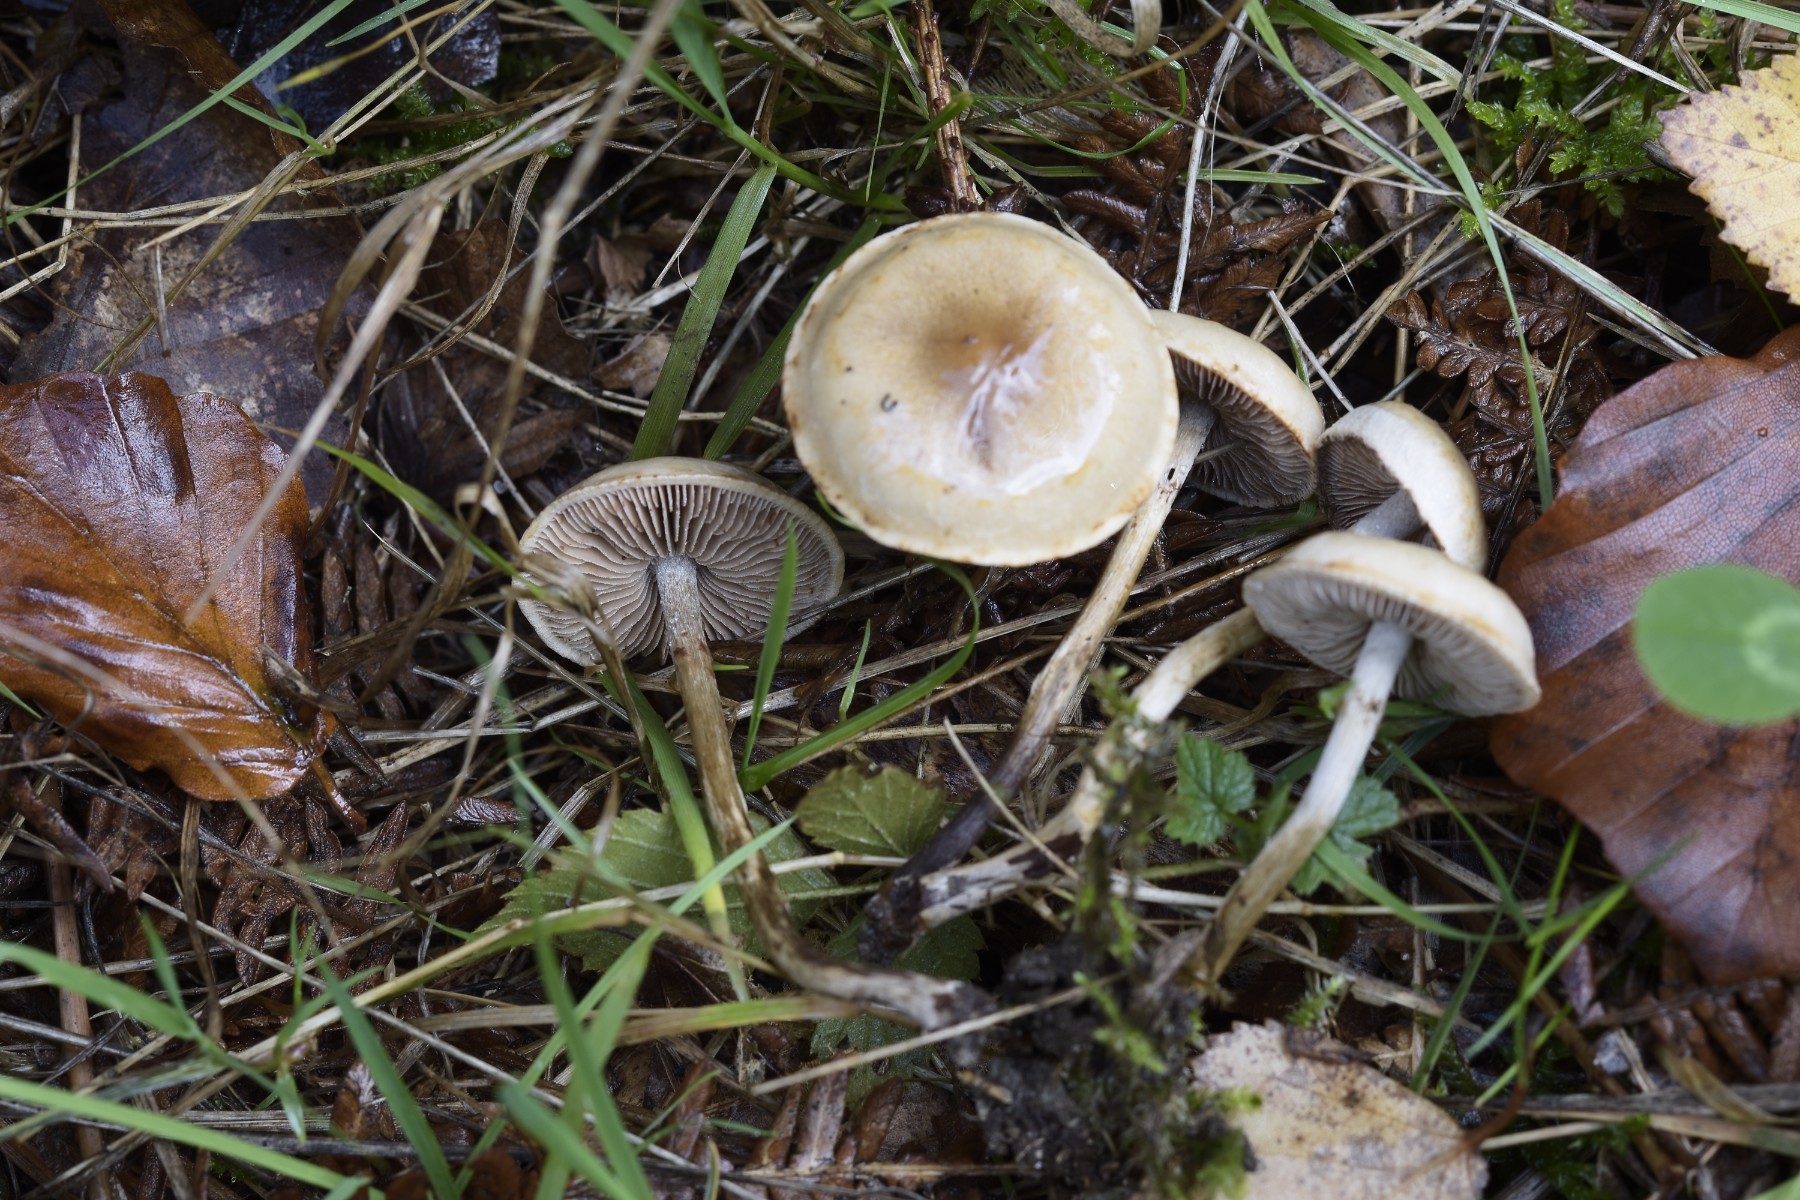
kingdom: Fungi
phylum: Basidiomycota
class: Agaricomycetes
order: Agaricales
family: Hymenogastraceae
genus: Hebeloma
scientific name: Hebeloma
